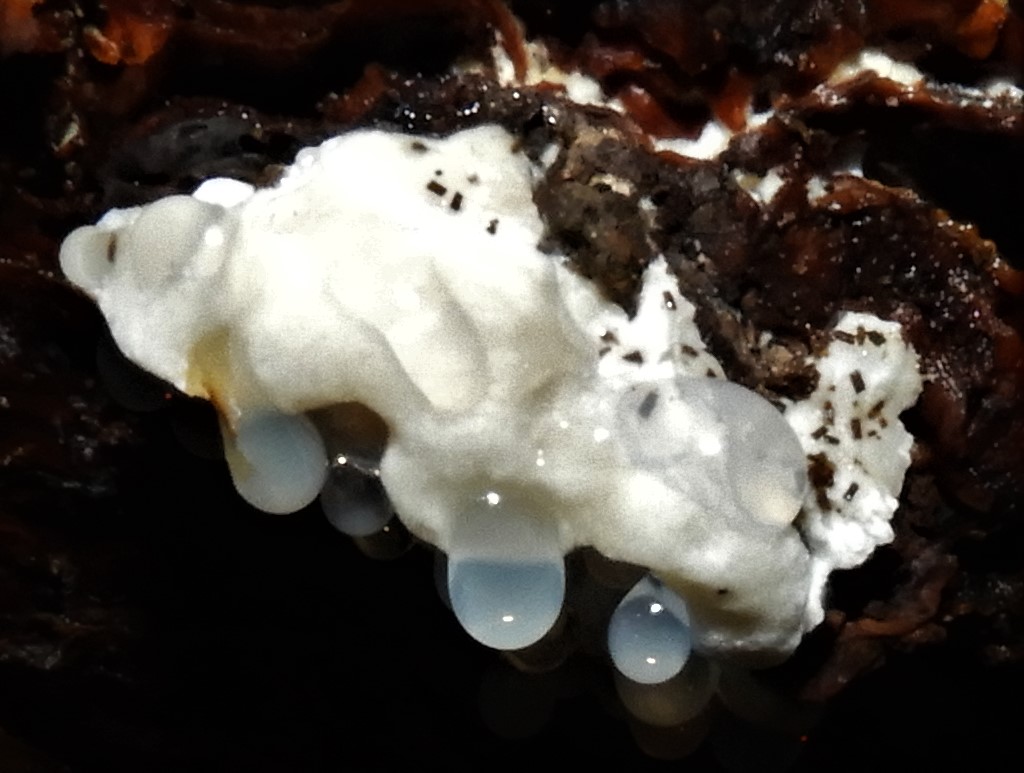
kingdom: Fungi
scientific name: Fungi
